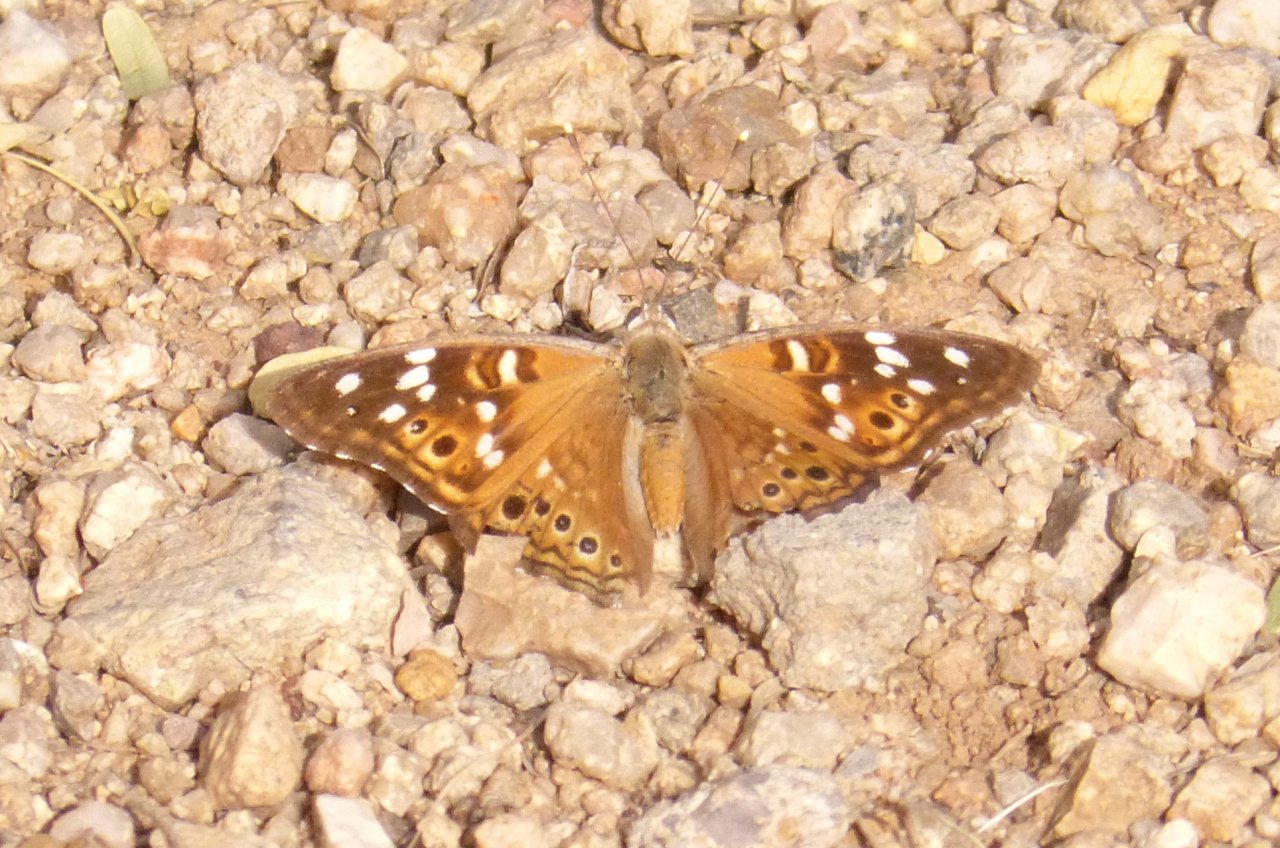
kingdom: Animalia
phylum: Arthropoda
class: Insecta
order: Lepidoptera
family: Nymphalidae
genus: Asterocampa
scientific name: Asterocampa leilia
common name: Empress Leilia
